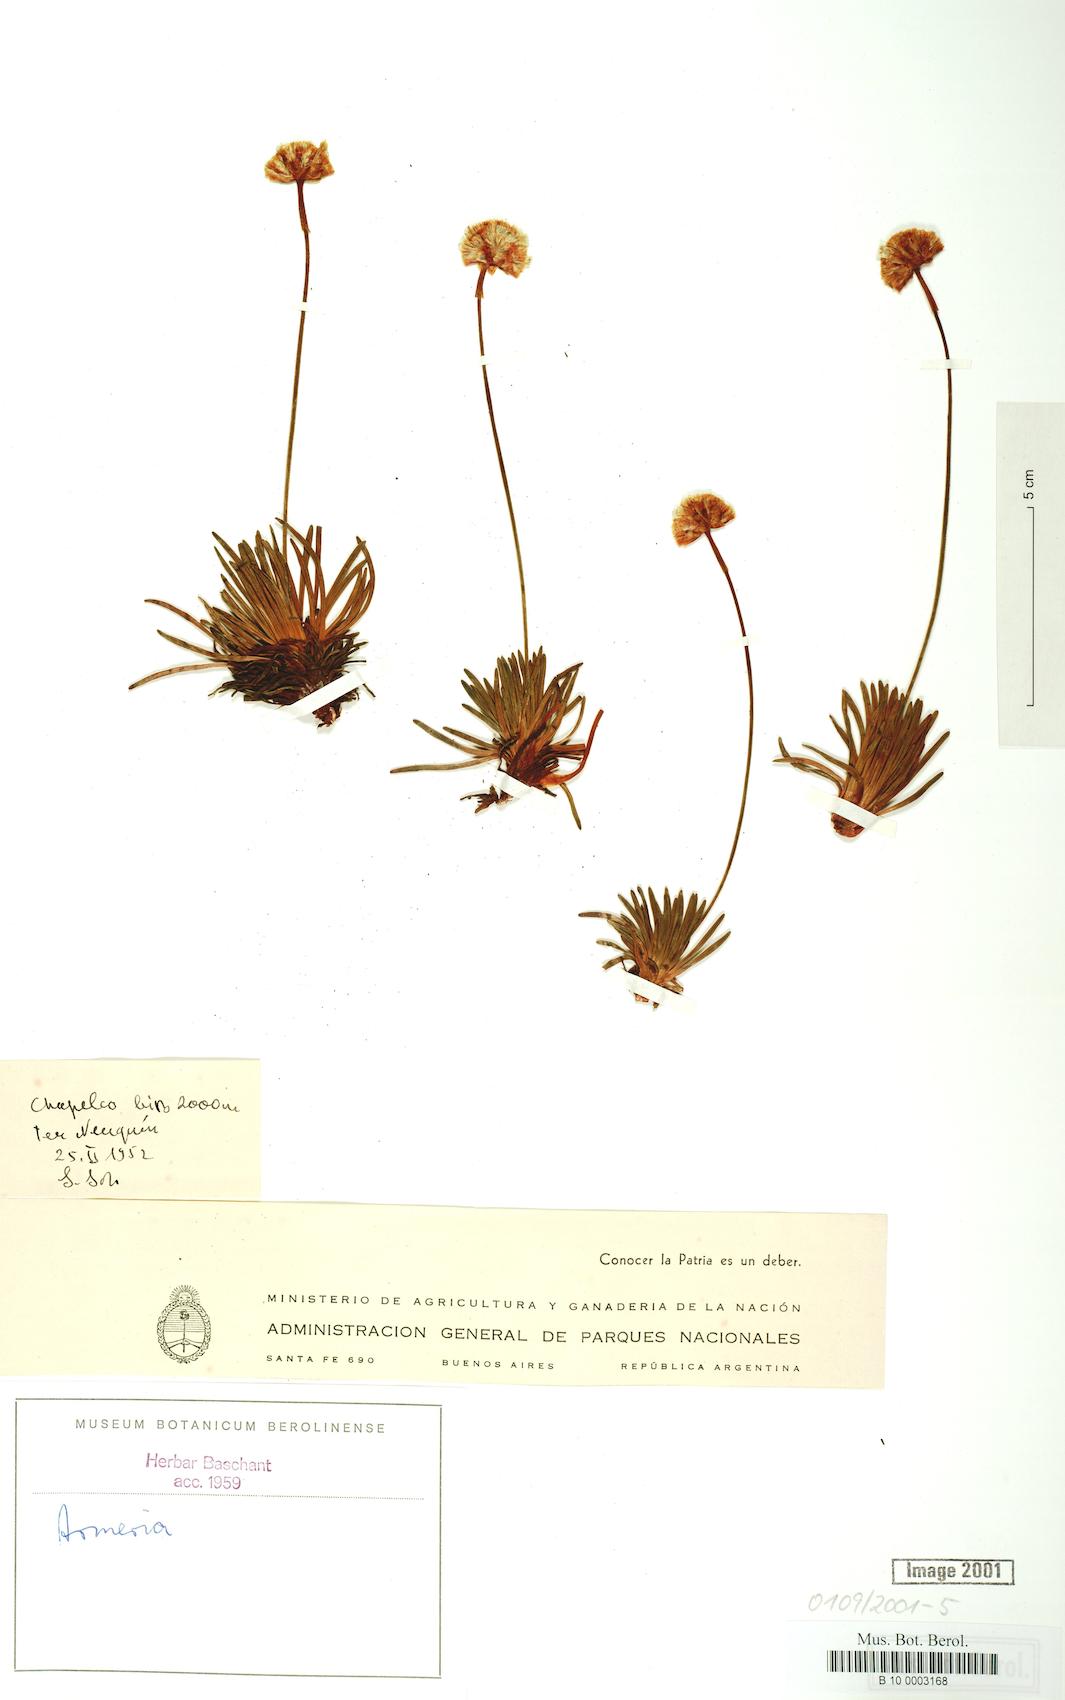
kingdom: Plantae
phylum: Tracheophyta
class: Magnoliopsida
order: Caryophyllales
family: Plumbaginaceae
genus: Armeria
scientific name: Armeria curvifolia
